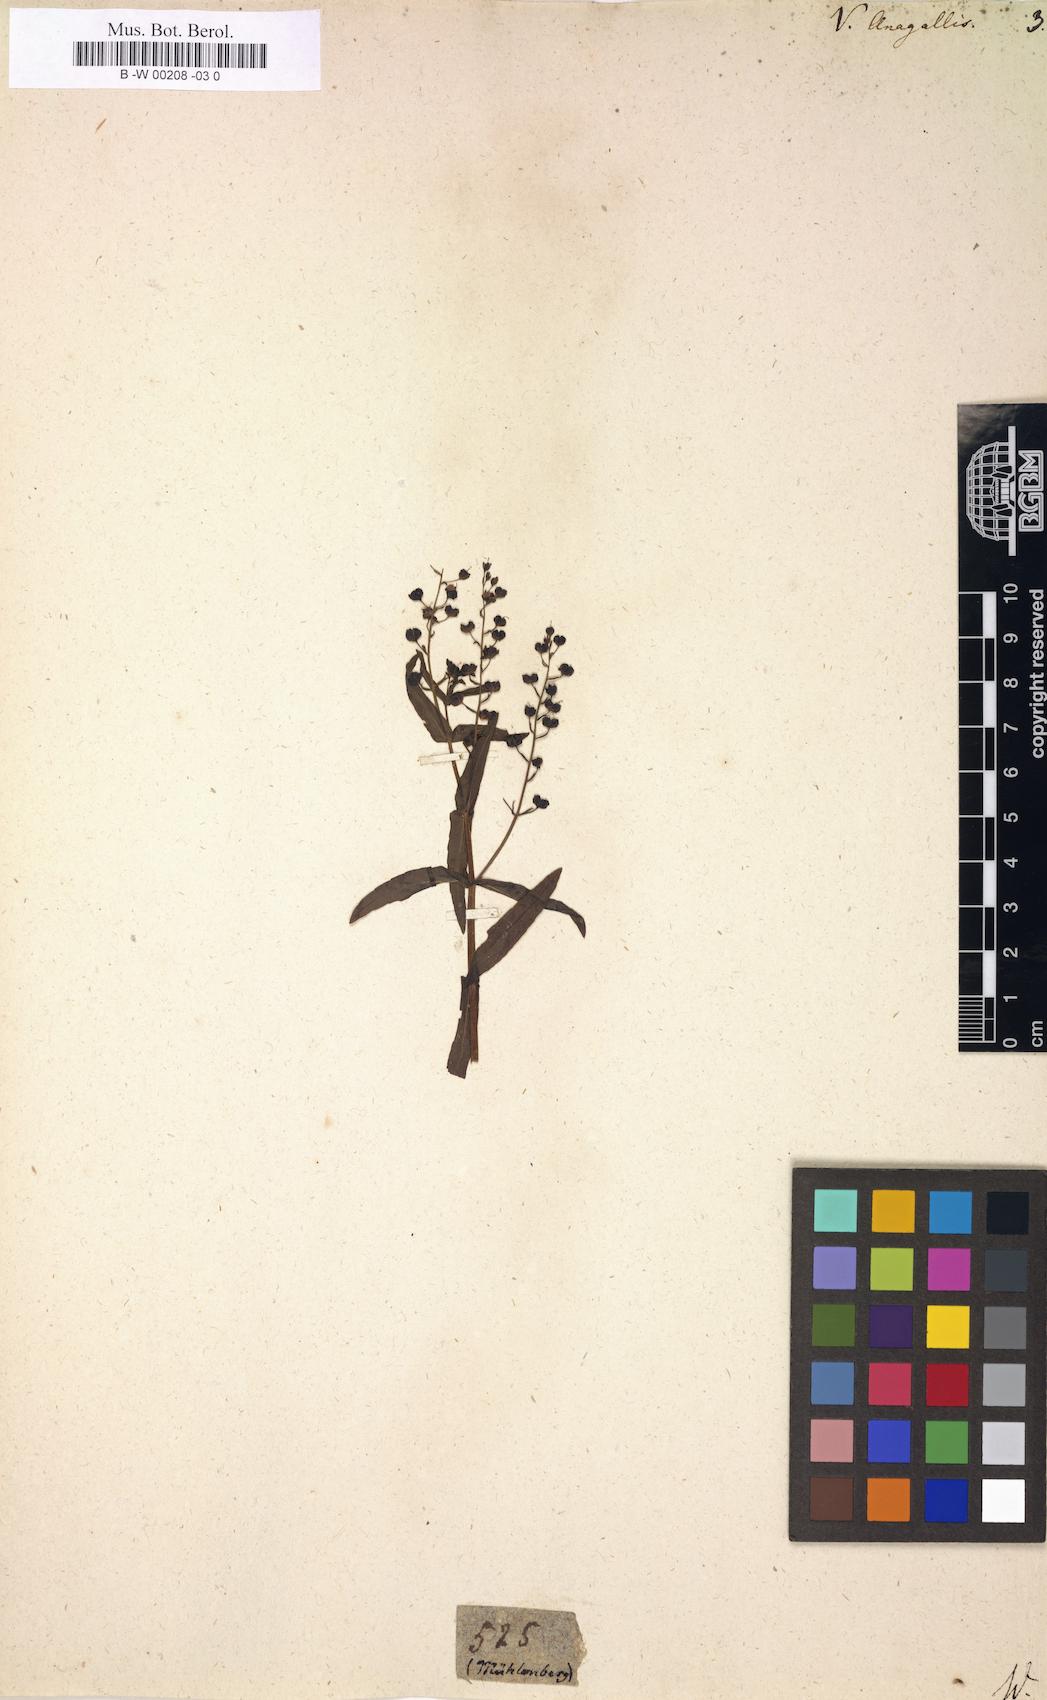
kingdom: Plantae
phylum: Tracheophyta
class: Magnoliopsida
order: Lamiales
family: Plantaginaceae
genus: Veronica
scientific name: Veronica anagallis
